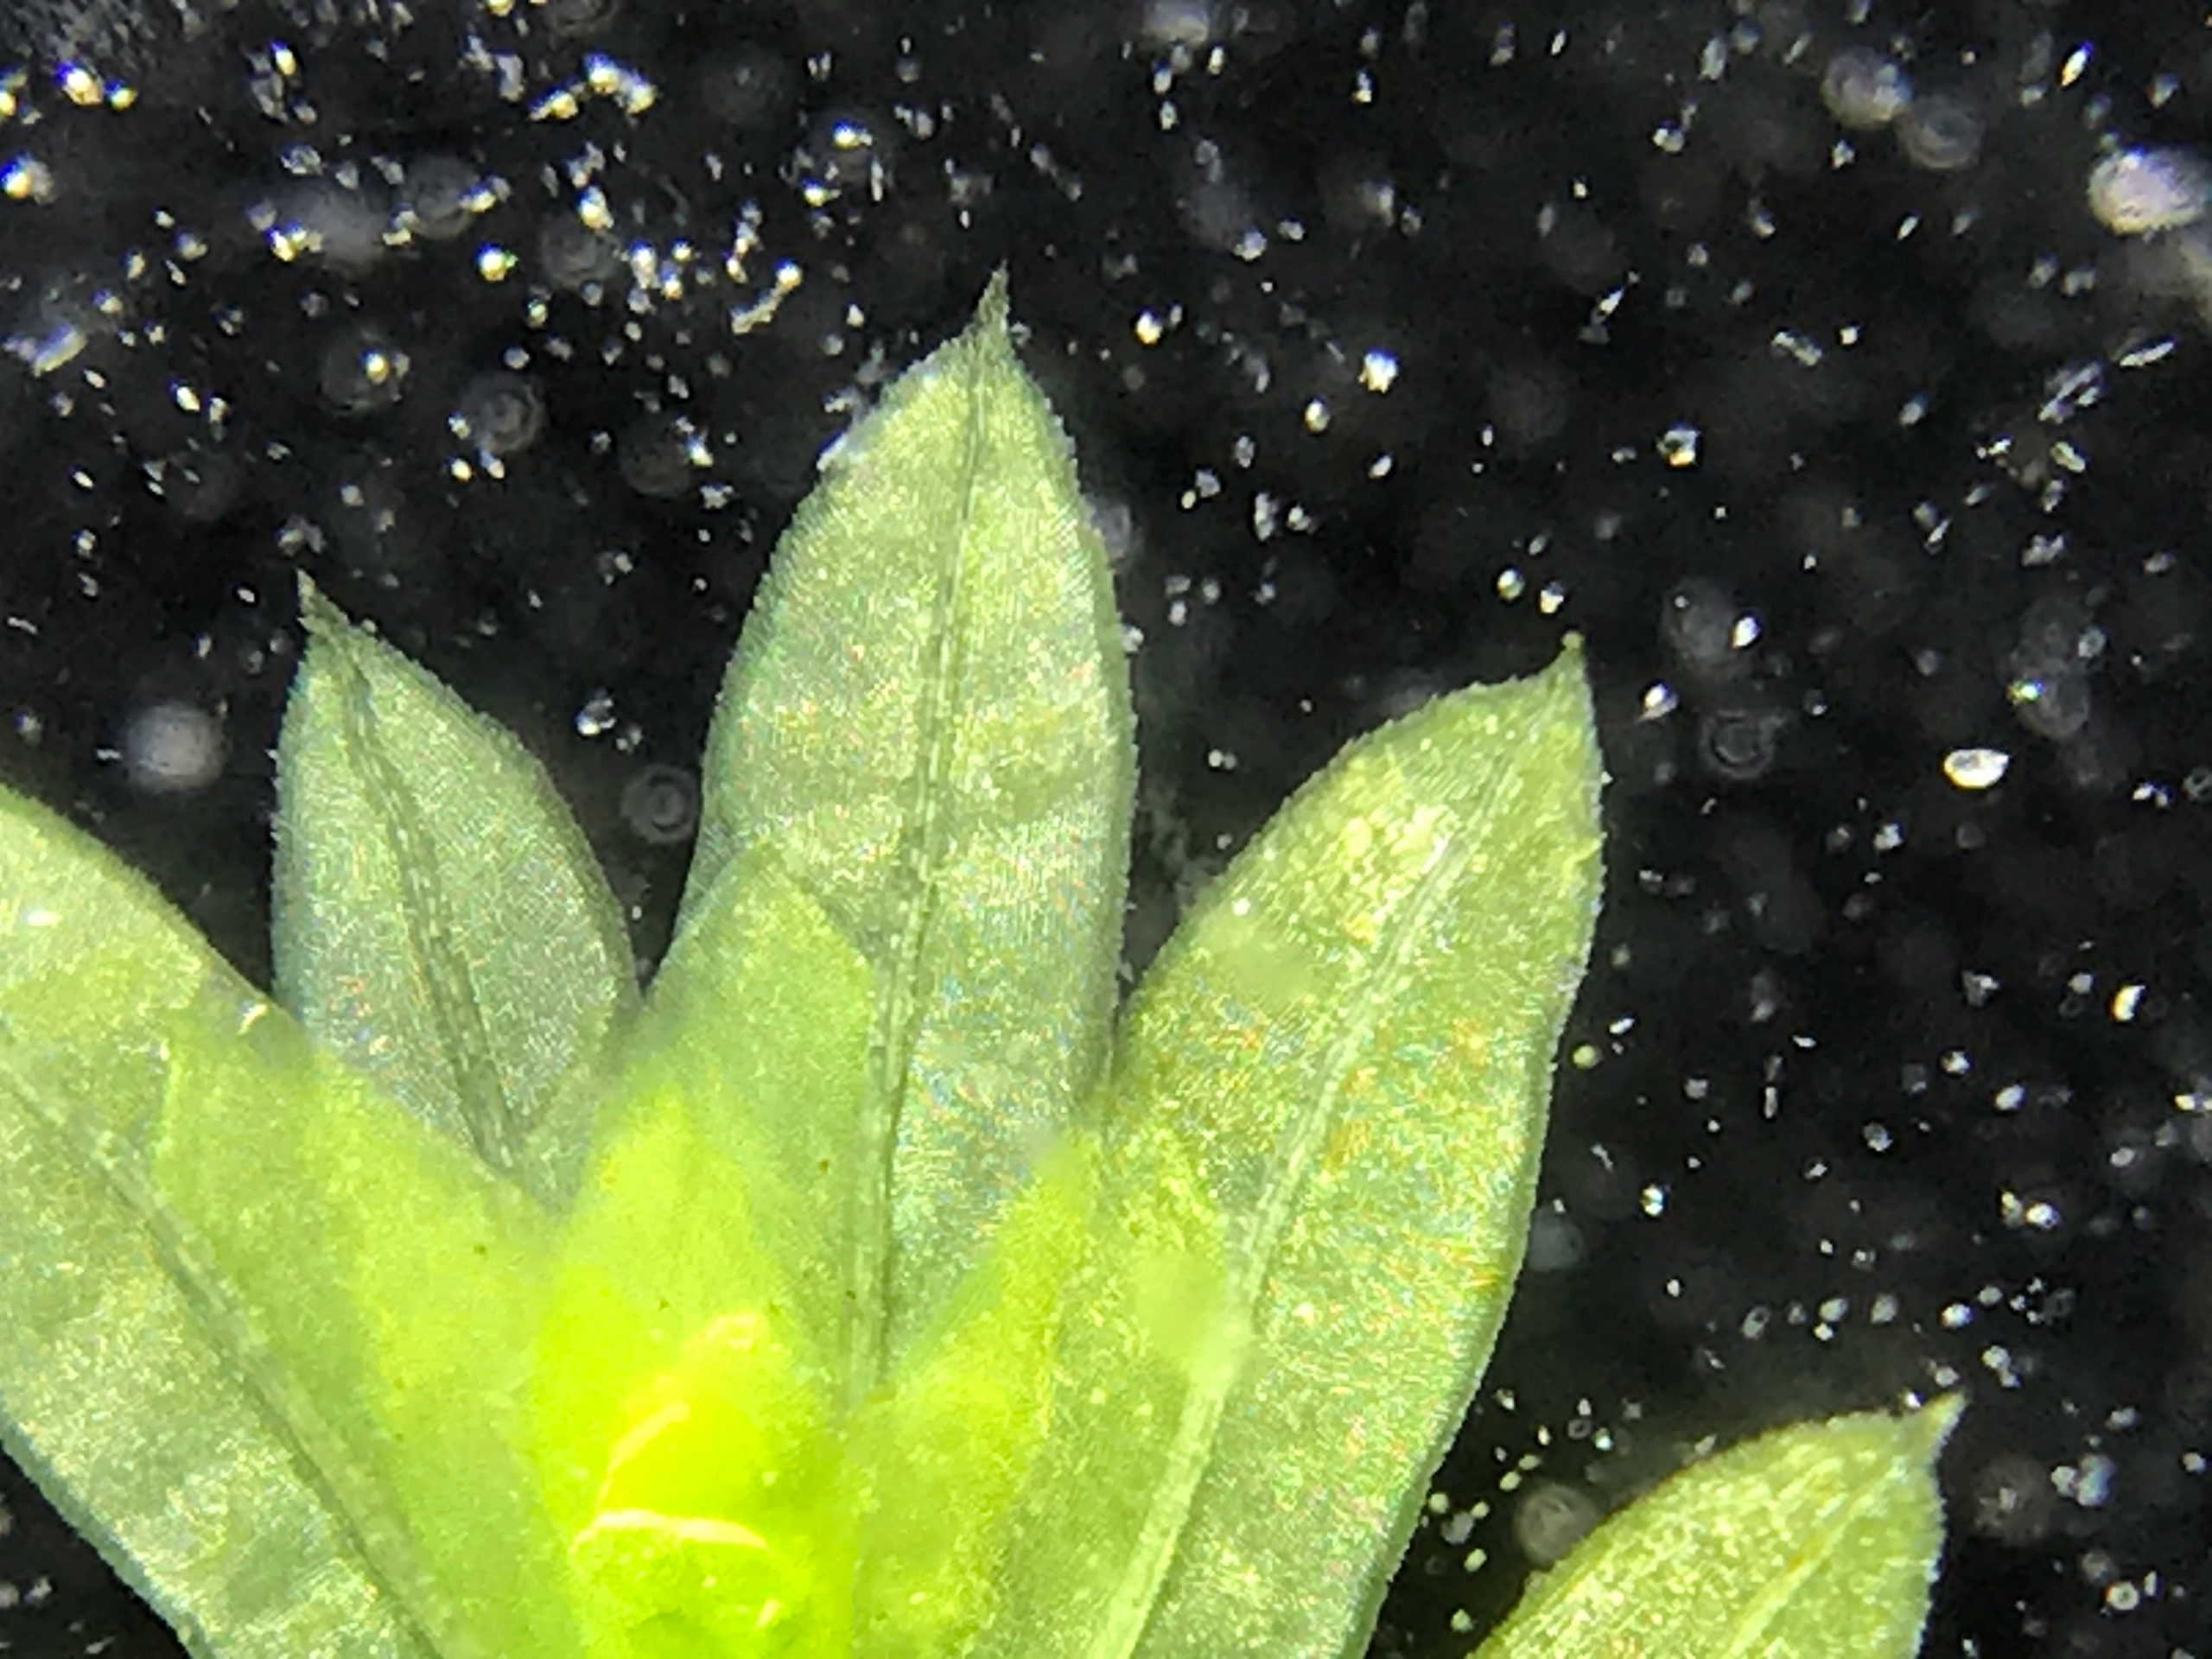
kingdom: Plantae
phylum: Bryophyta
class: Bryopsida
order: Dicranales
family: Fissidentaceae
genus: Fissidens
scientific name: Fissidens
